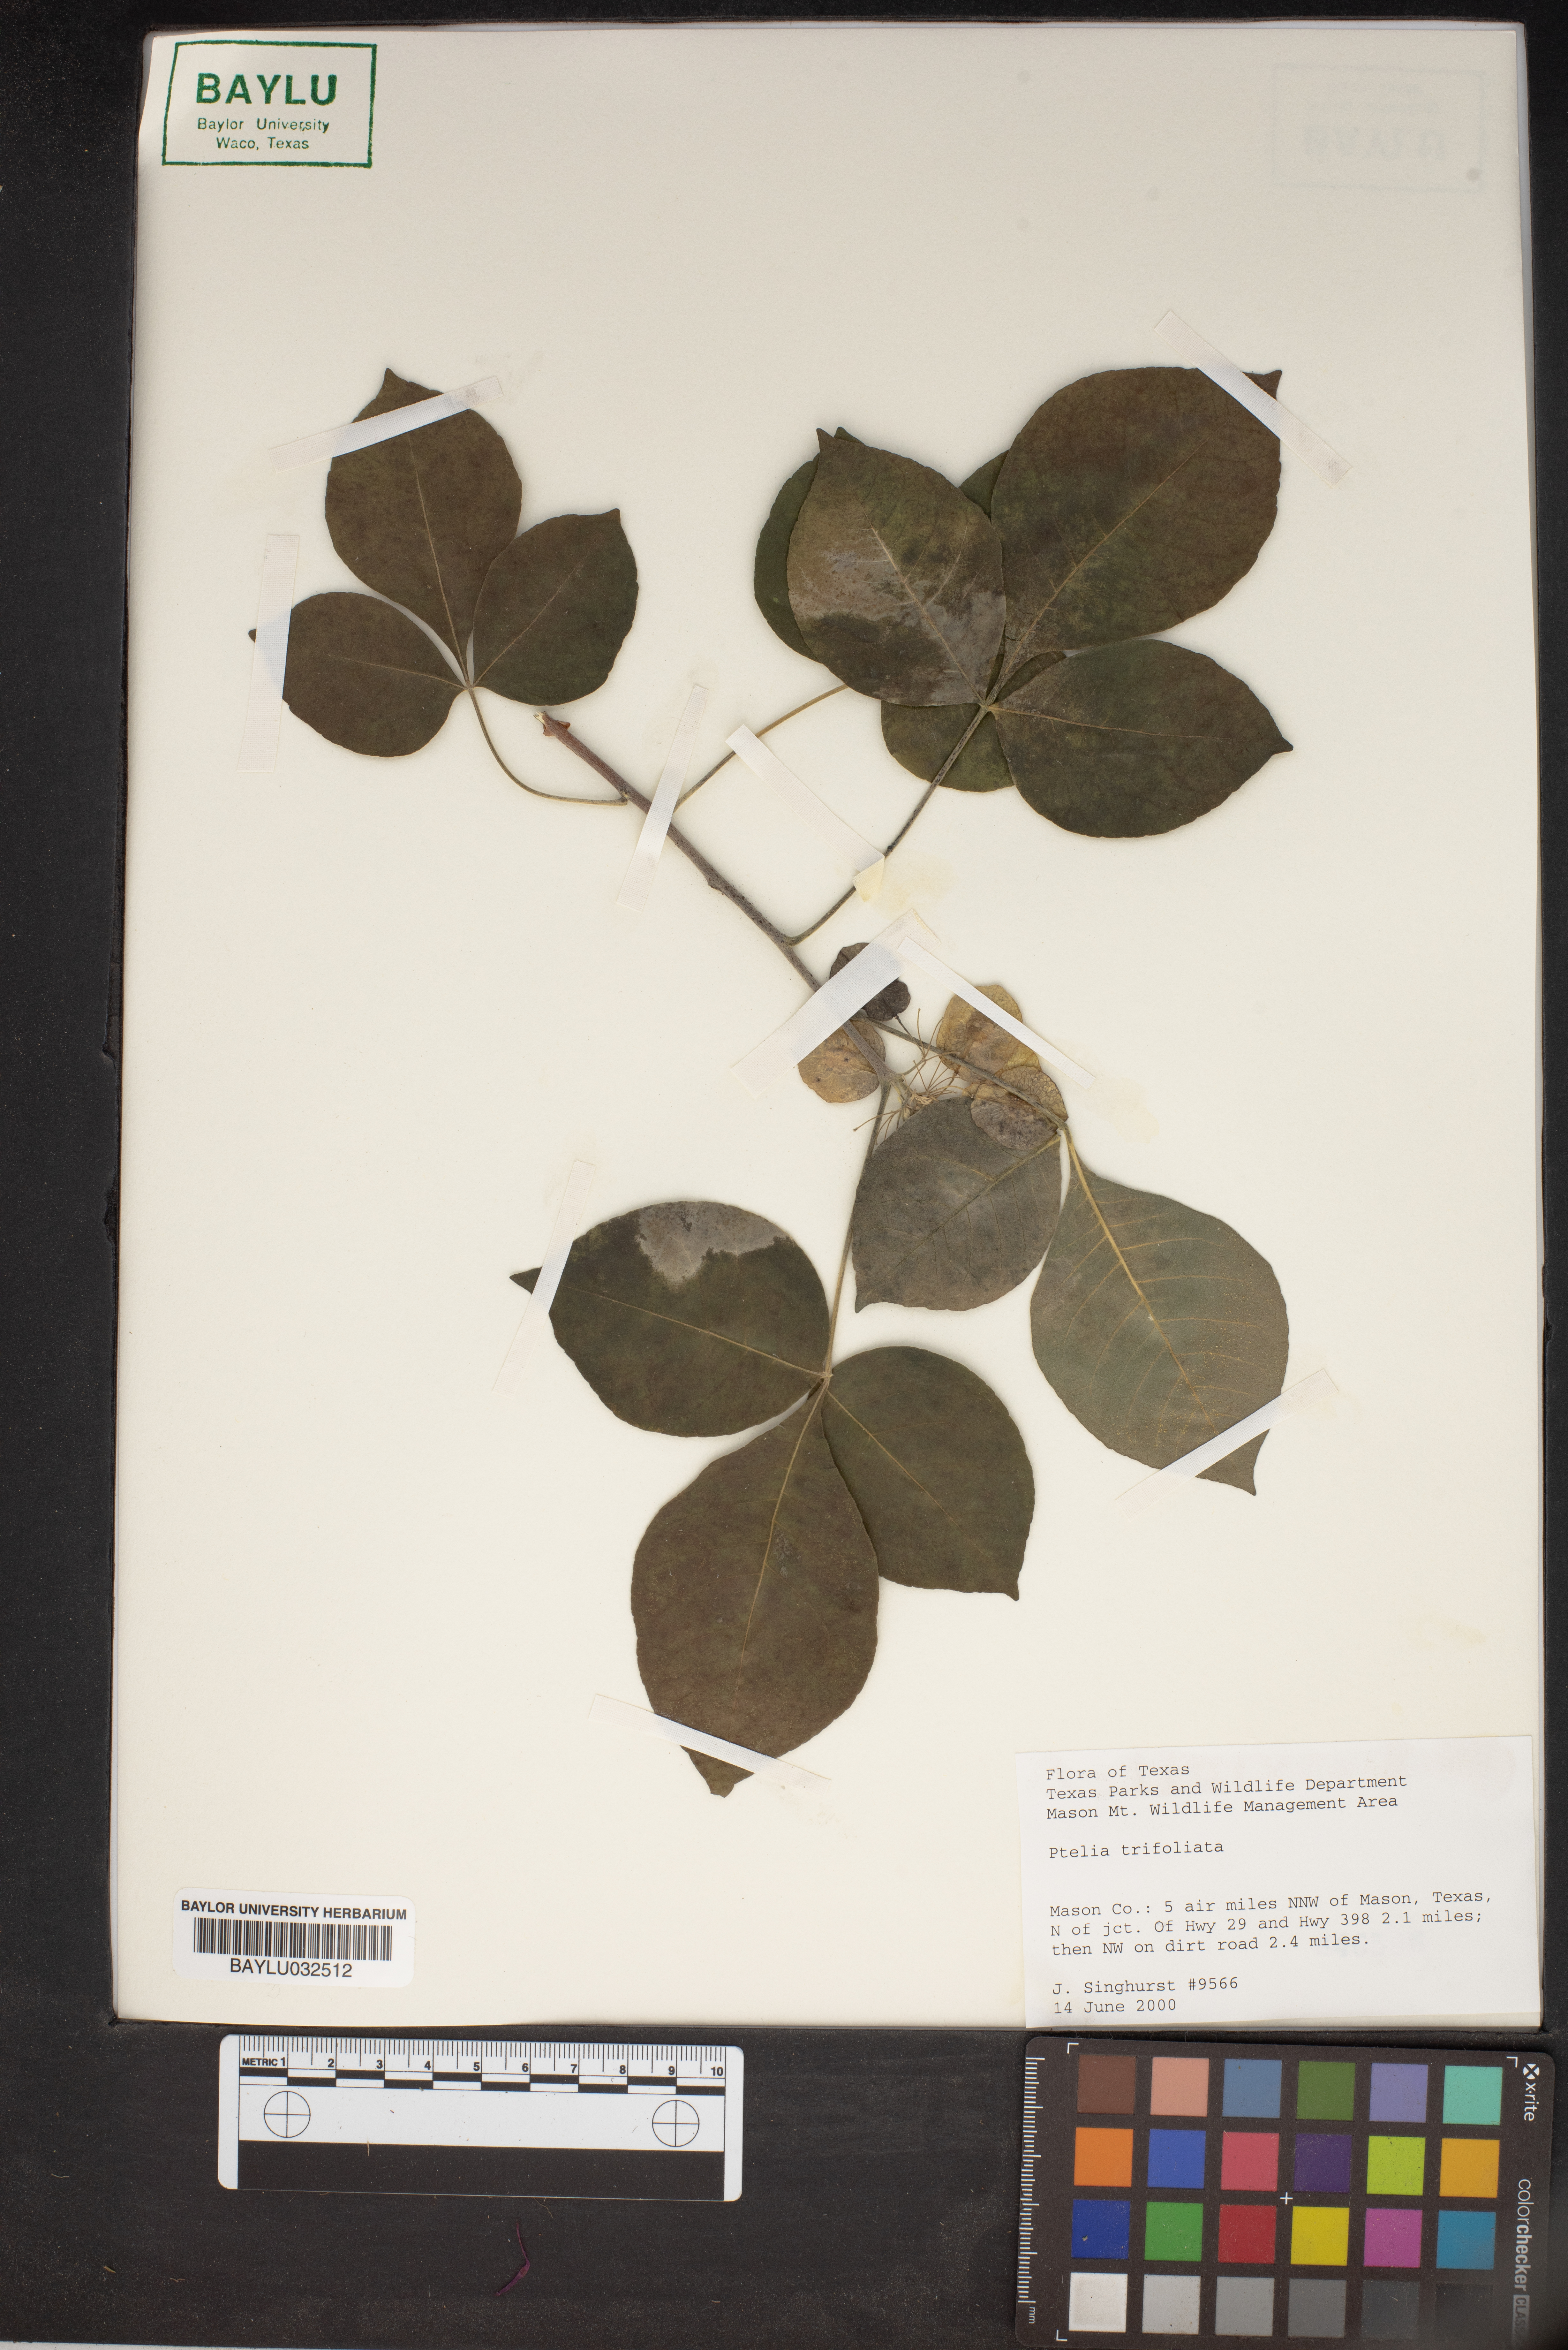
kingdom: Plantae
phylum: Tracheophyta
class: Magnoliopsida
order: Sapindales
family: Rutaceae
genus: Ptelea
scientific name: Ptelea trifoliata
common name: Common hop-tree
